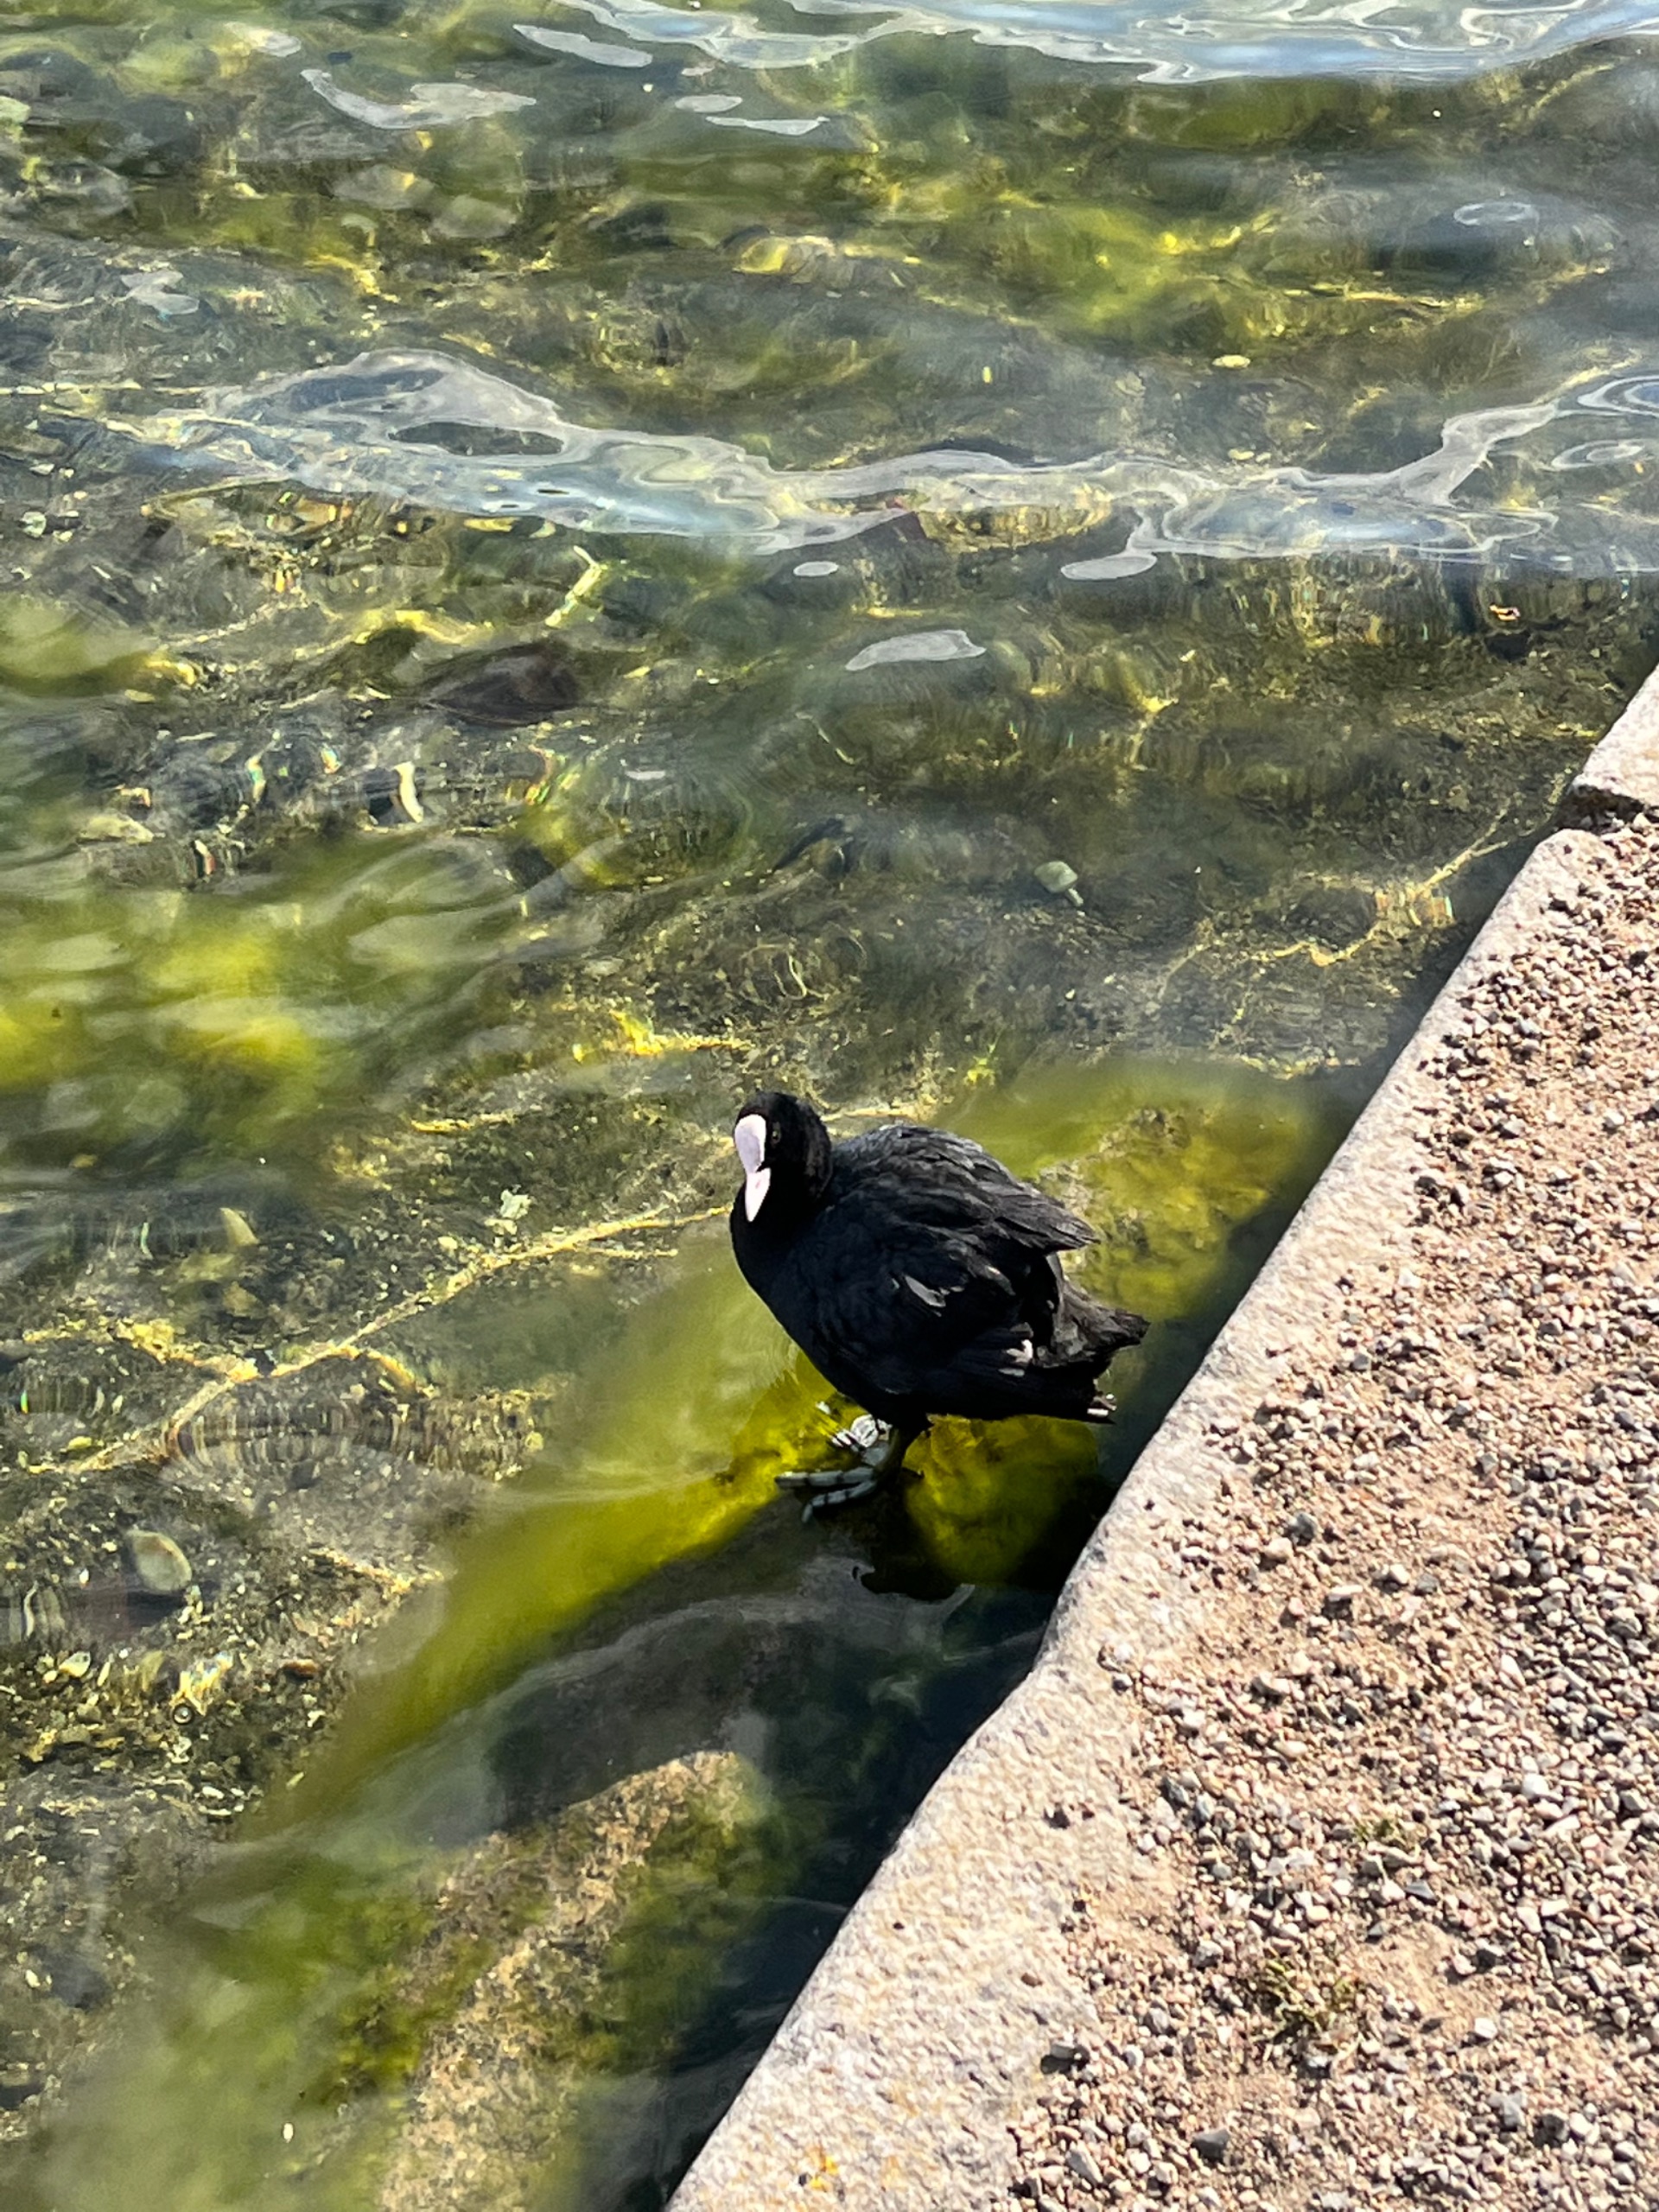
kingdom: Animalia
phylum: Chordata
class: Aves
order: Gruiformes
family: Rallidae
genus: Fulica
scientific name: Fulica atra
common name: Blishøne
